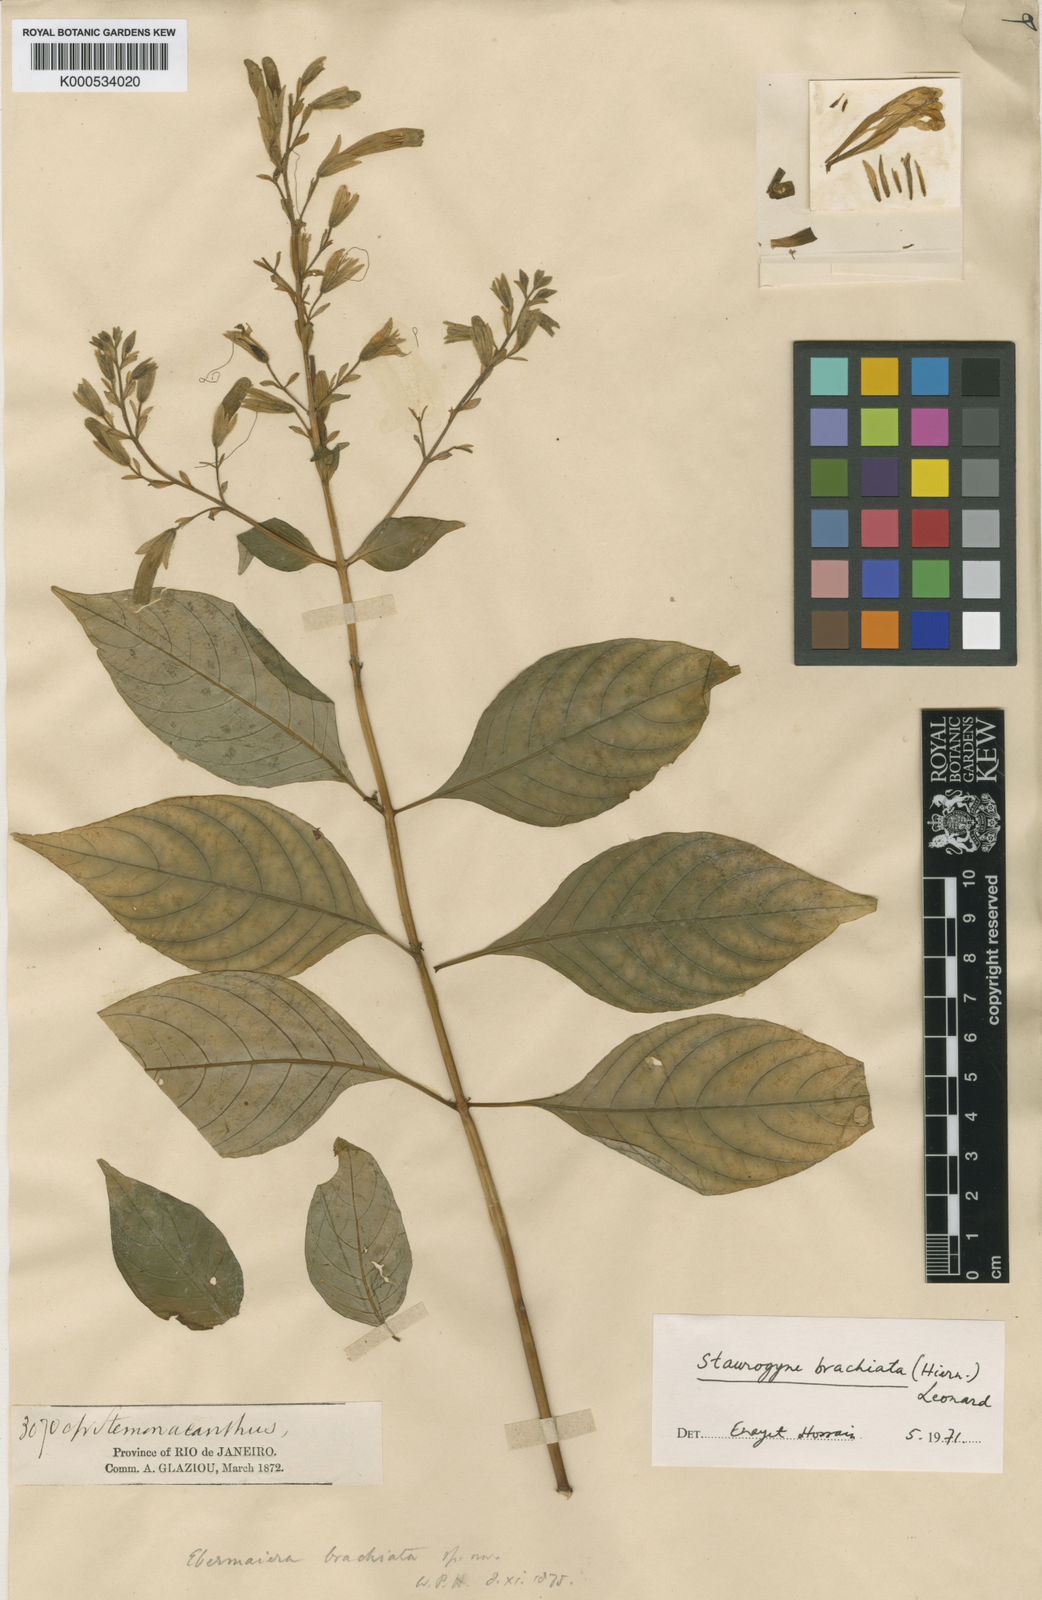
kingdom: Plantae
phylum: Tracheophyta
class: Magnoliopsida
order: Lamiales
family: Acanthaceae
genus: Staurogyne
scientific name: Staurogyne brachiata
